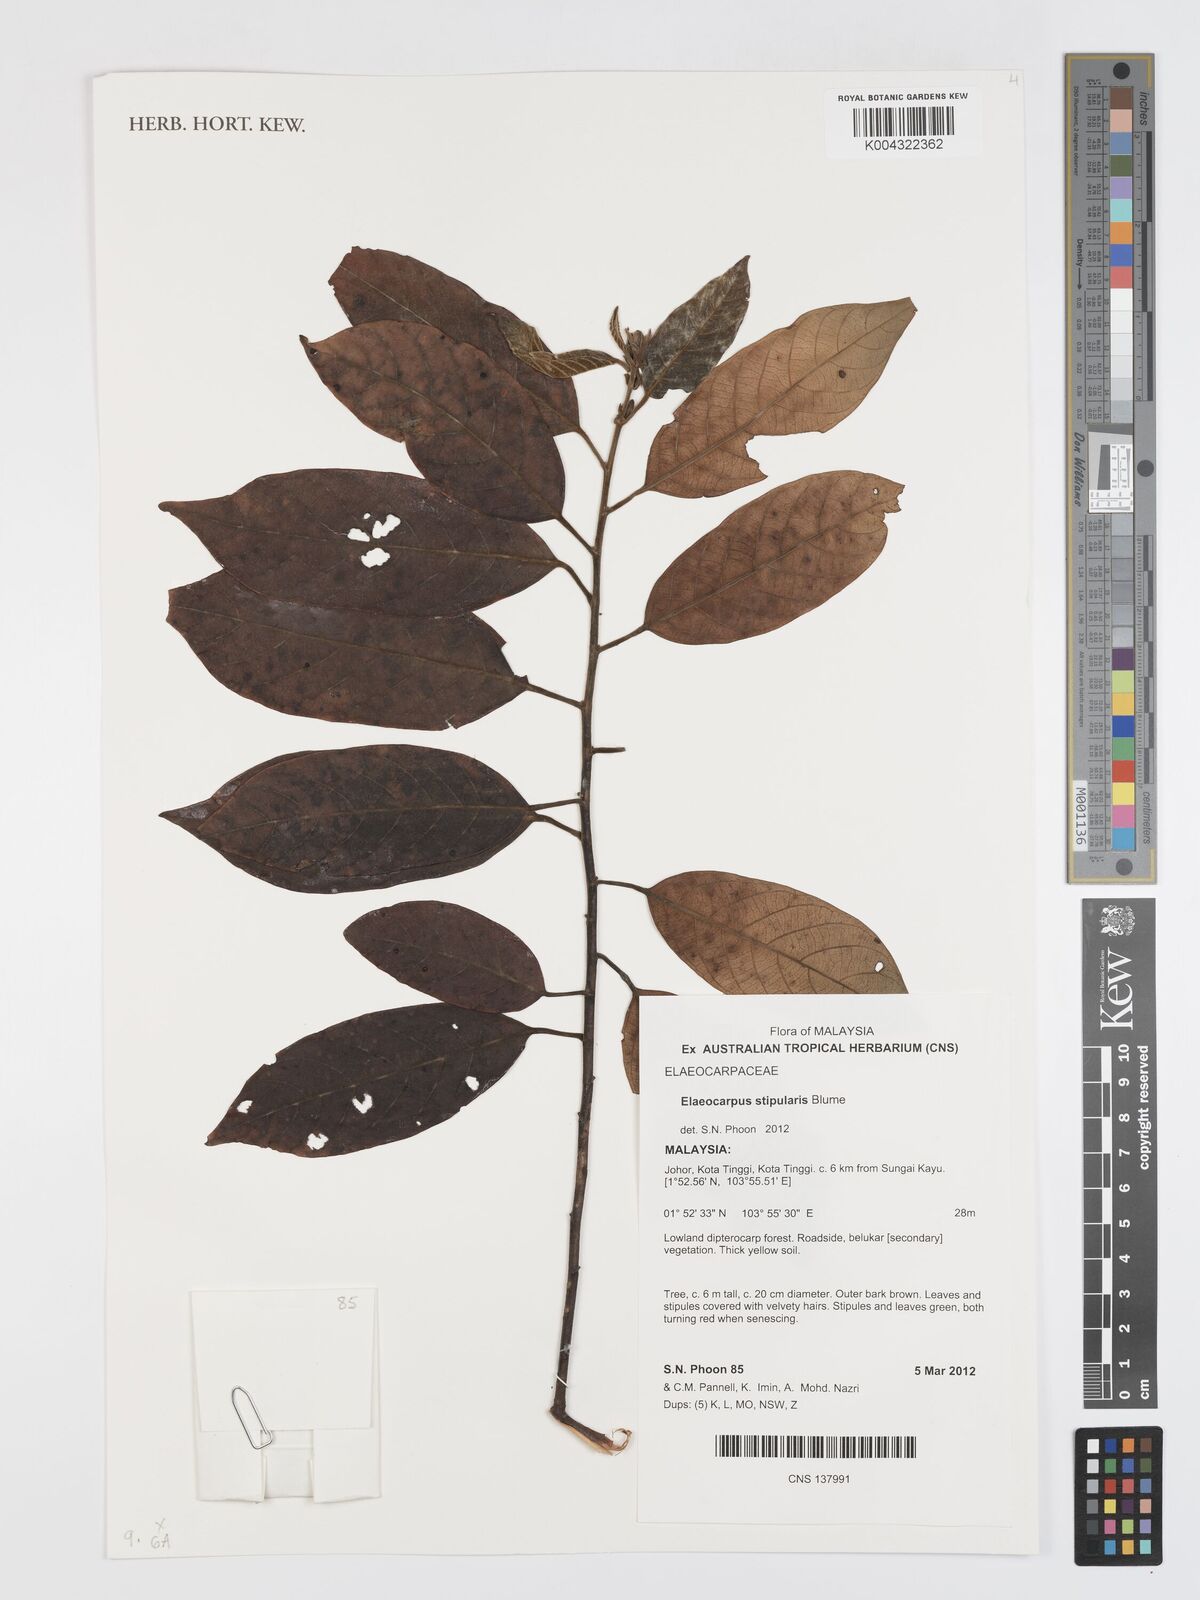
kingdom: Plantae
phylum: Tracheophyta
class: Magnoliopsida
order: Oxalidales
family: Elaeocarpaceae
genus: Elaeocarpus
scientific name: Elaeocarpus stipularis
